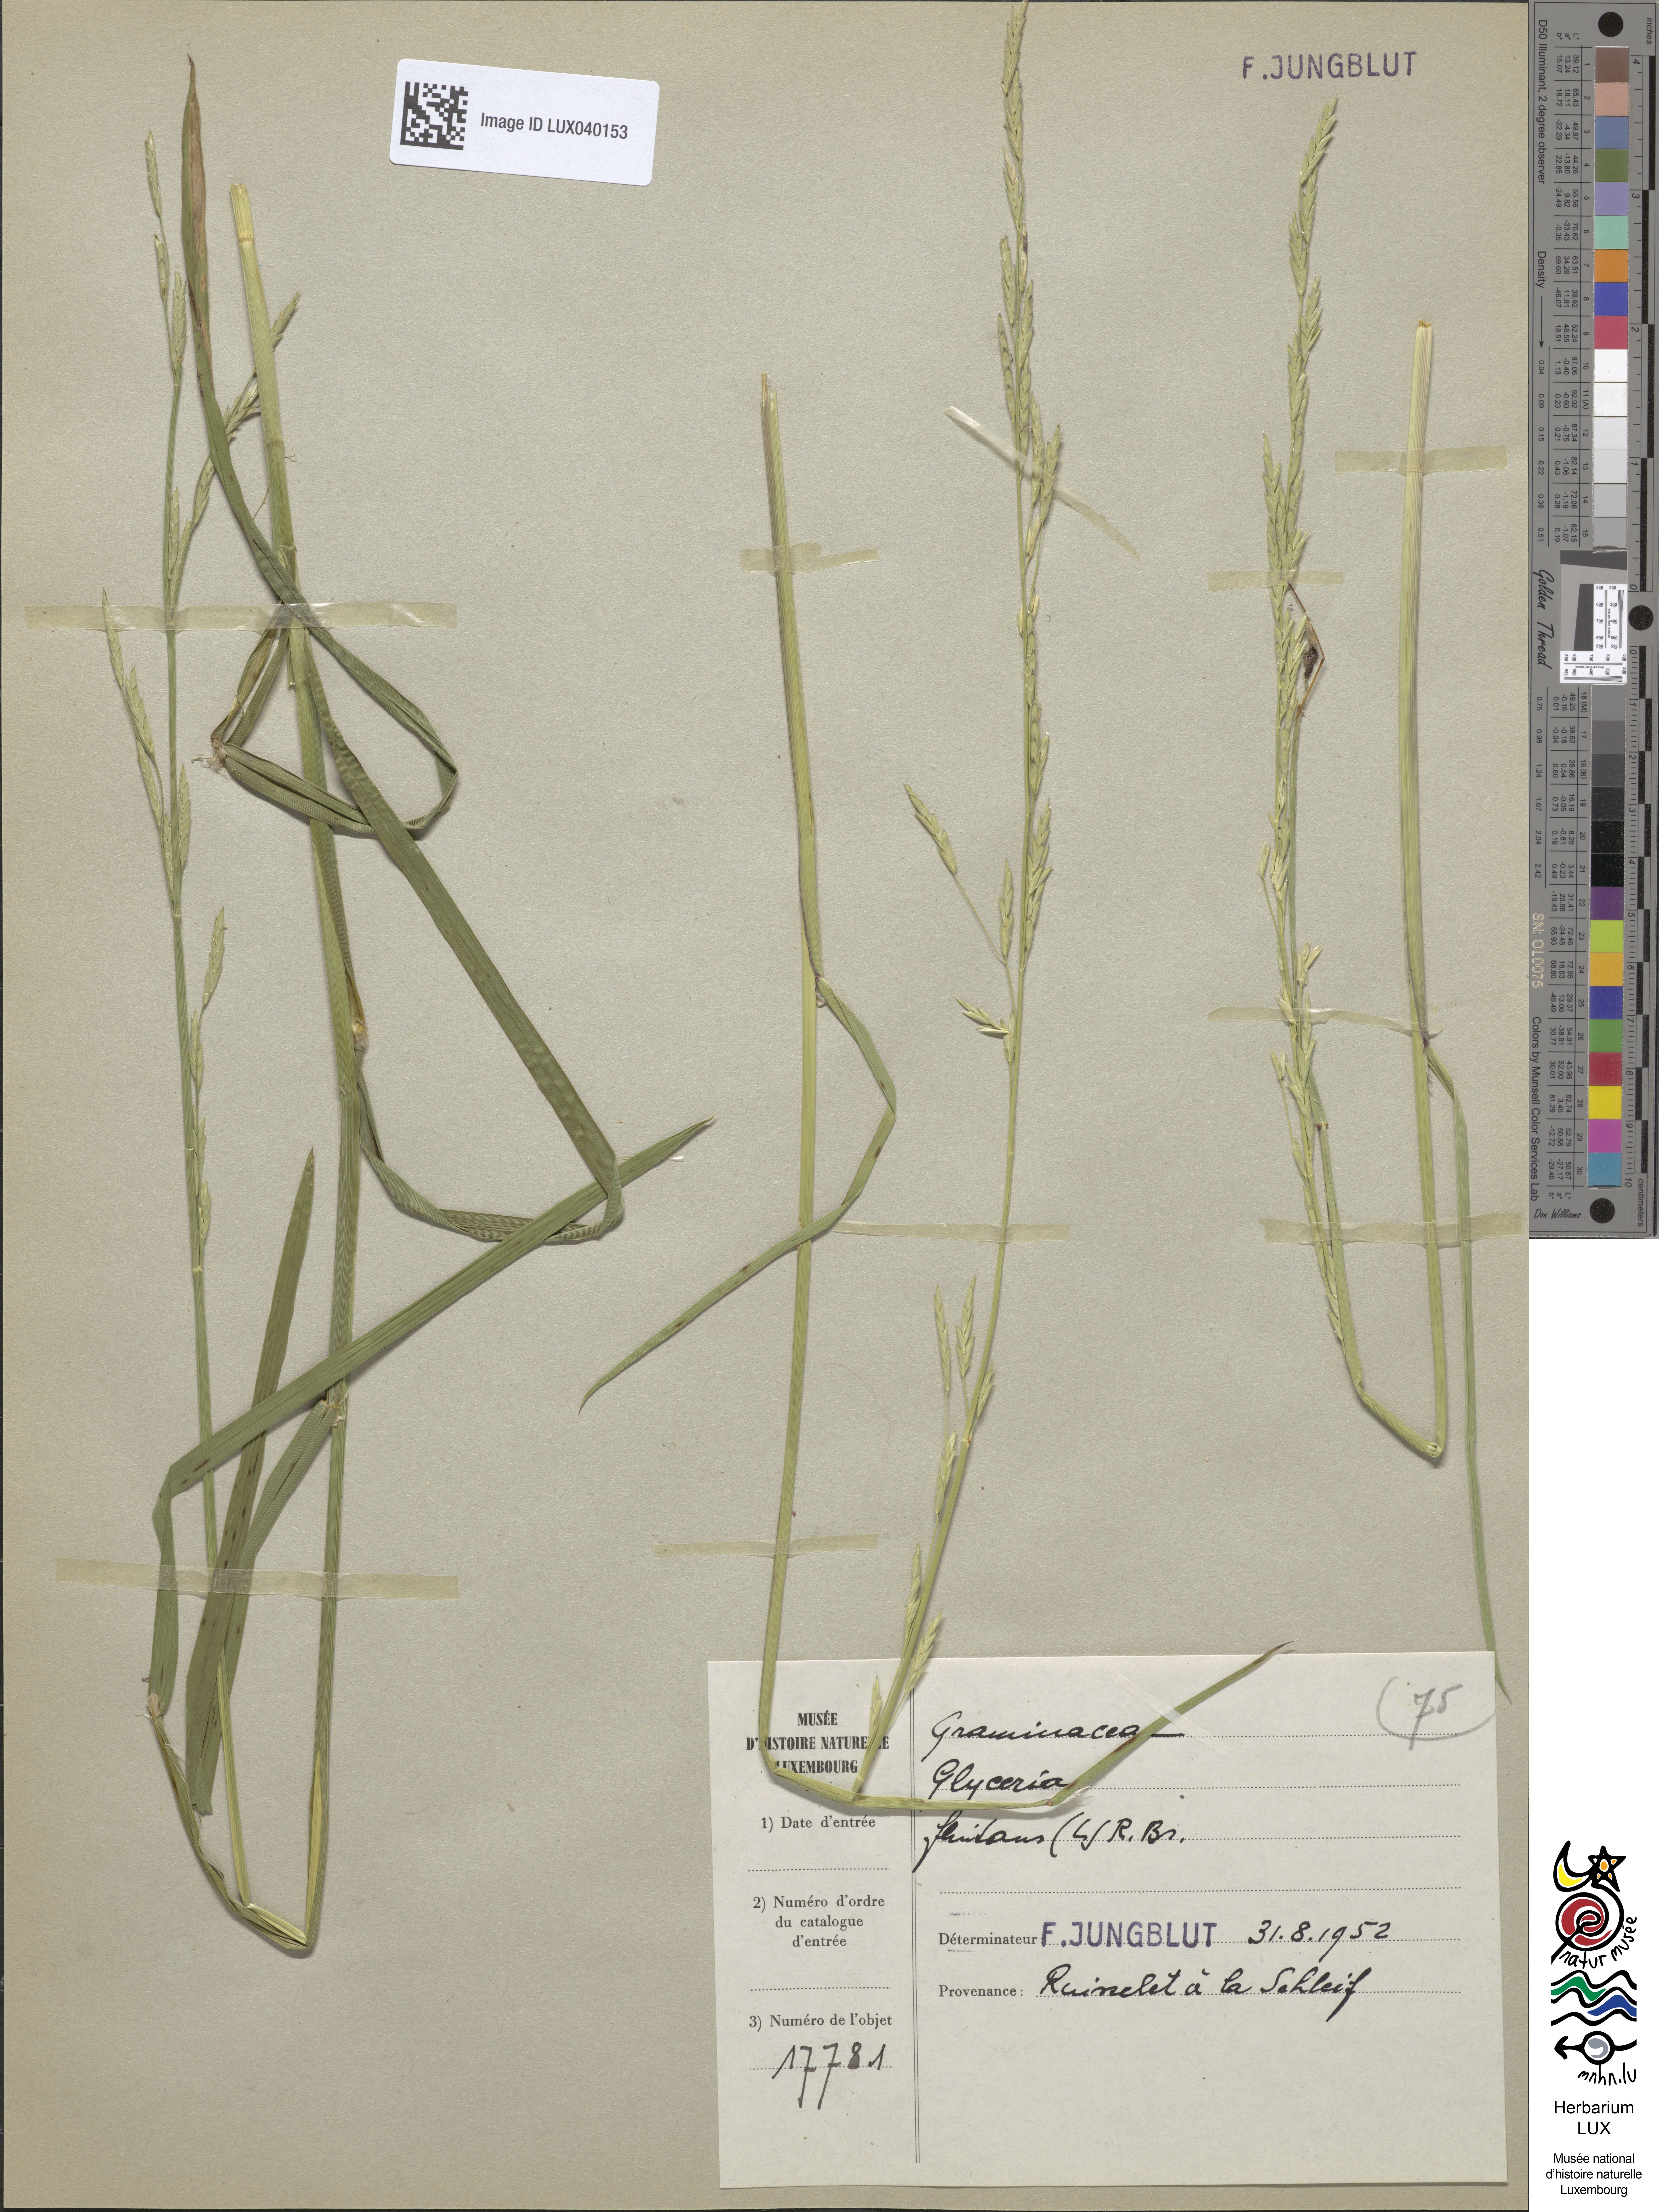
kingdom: Plantae
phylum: Tracheophyta
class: Liliopsida
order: Poales
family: Poaceae
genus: Glyceria
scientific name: Glyceria fluitans
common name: Floating sweet-grass
